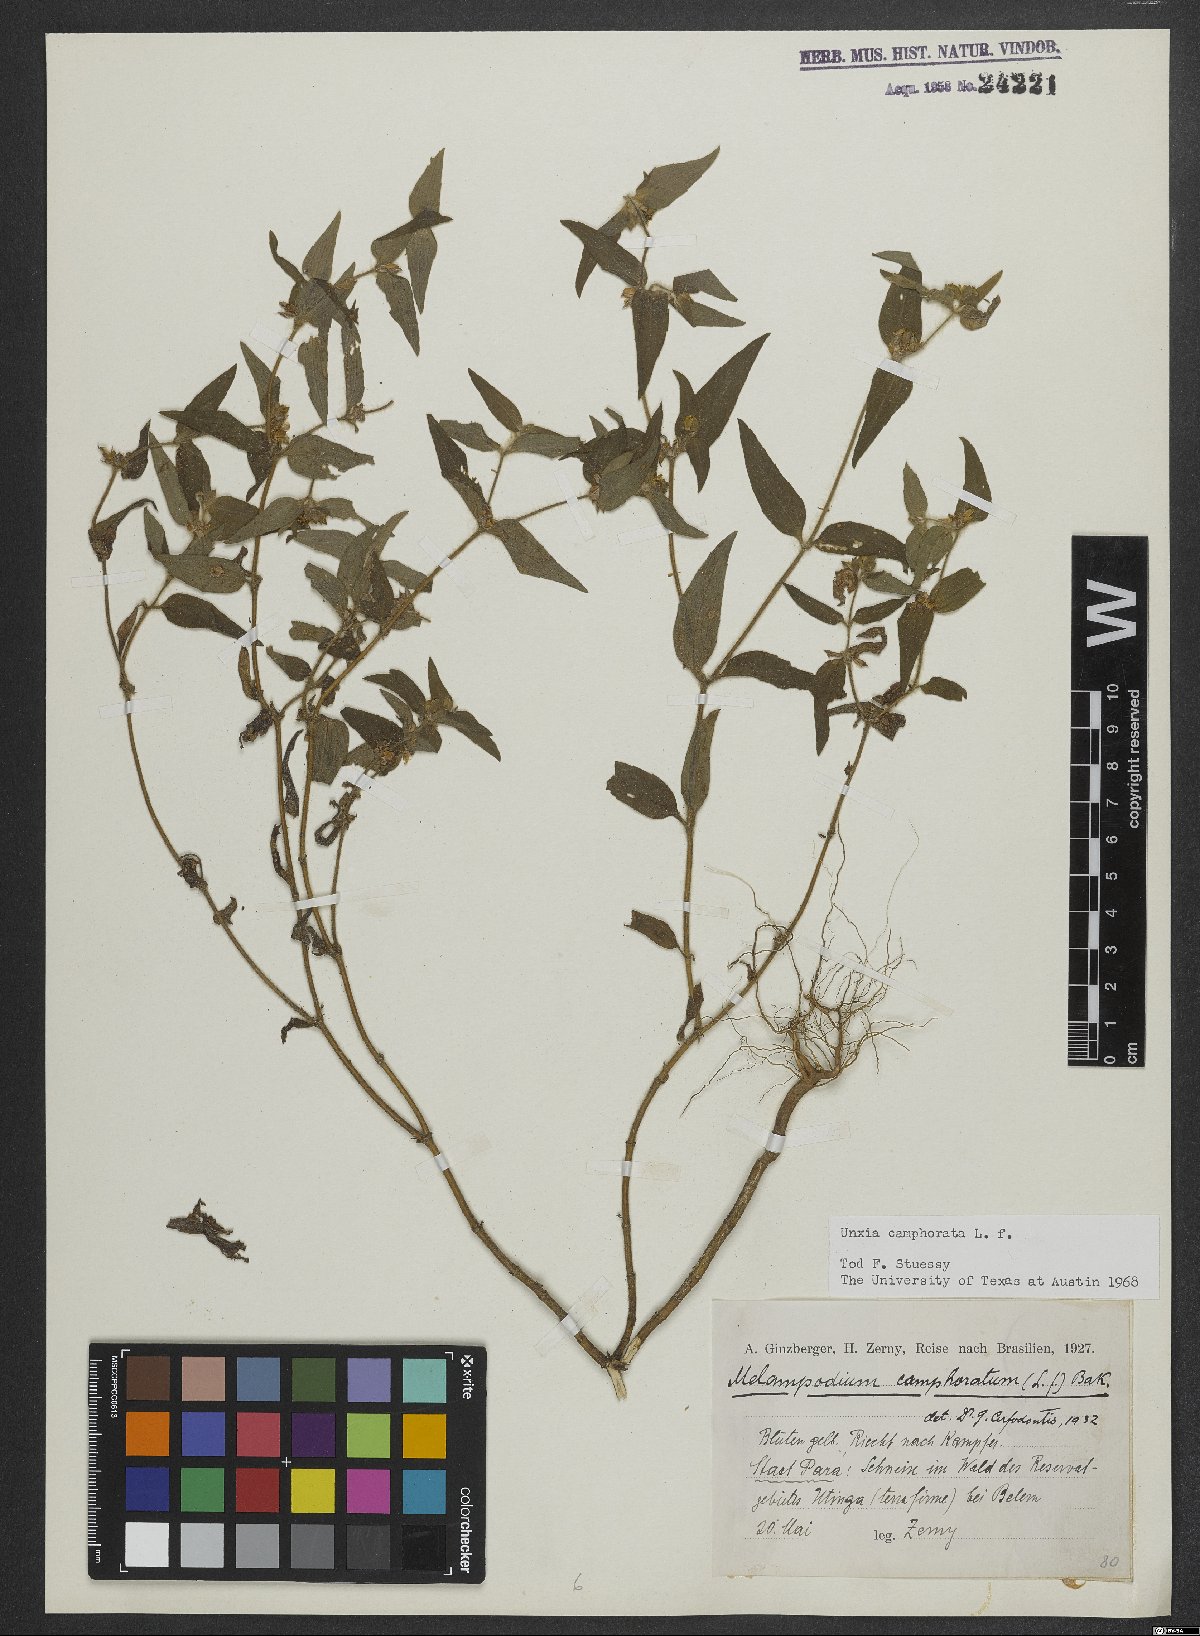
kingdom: Plantae
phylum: Tracheophyta
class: Magnoliopsida
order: Asterales
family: Asteraceae
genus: Unxia
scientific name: Unxia camphorata
